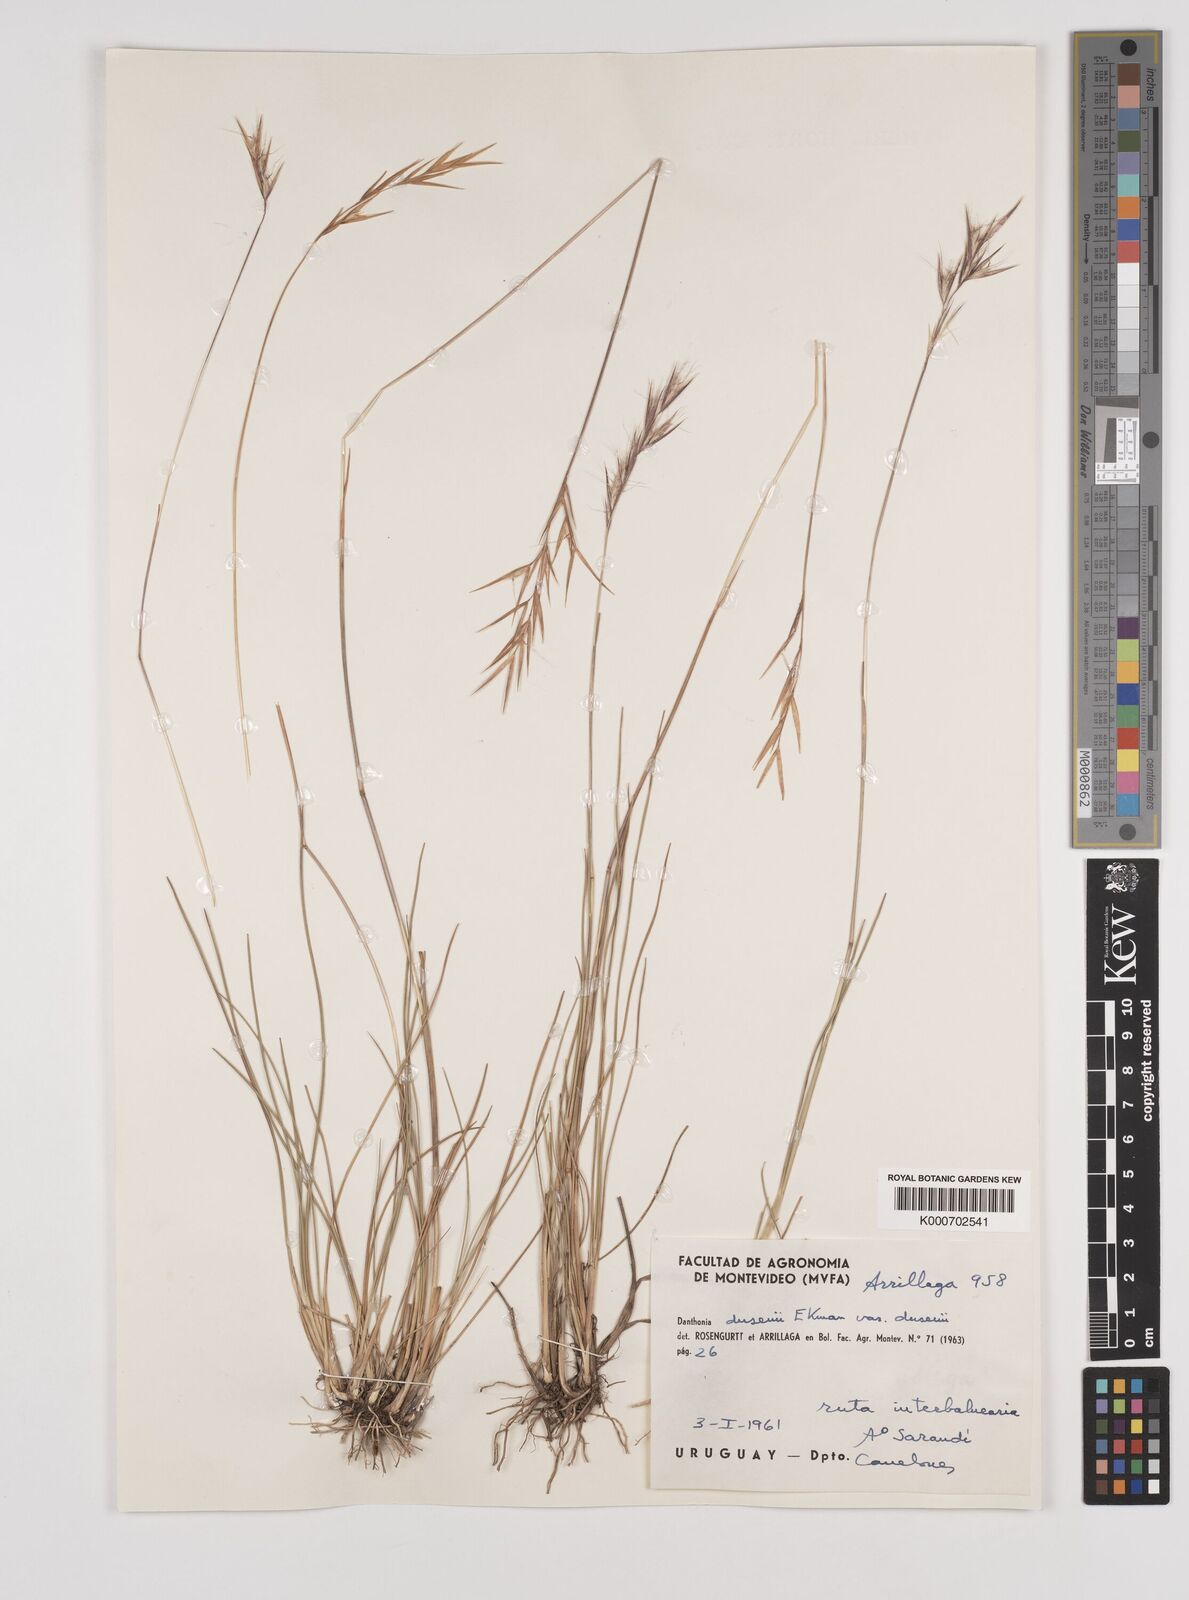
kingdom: Plantae
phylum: Tracheophyta
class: Liliopsida
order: Poales
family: Poaceae
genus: Danthonia
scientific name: Danthonia secundiflora
